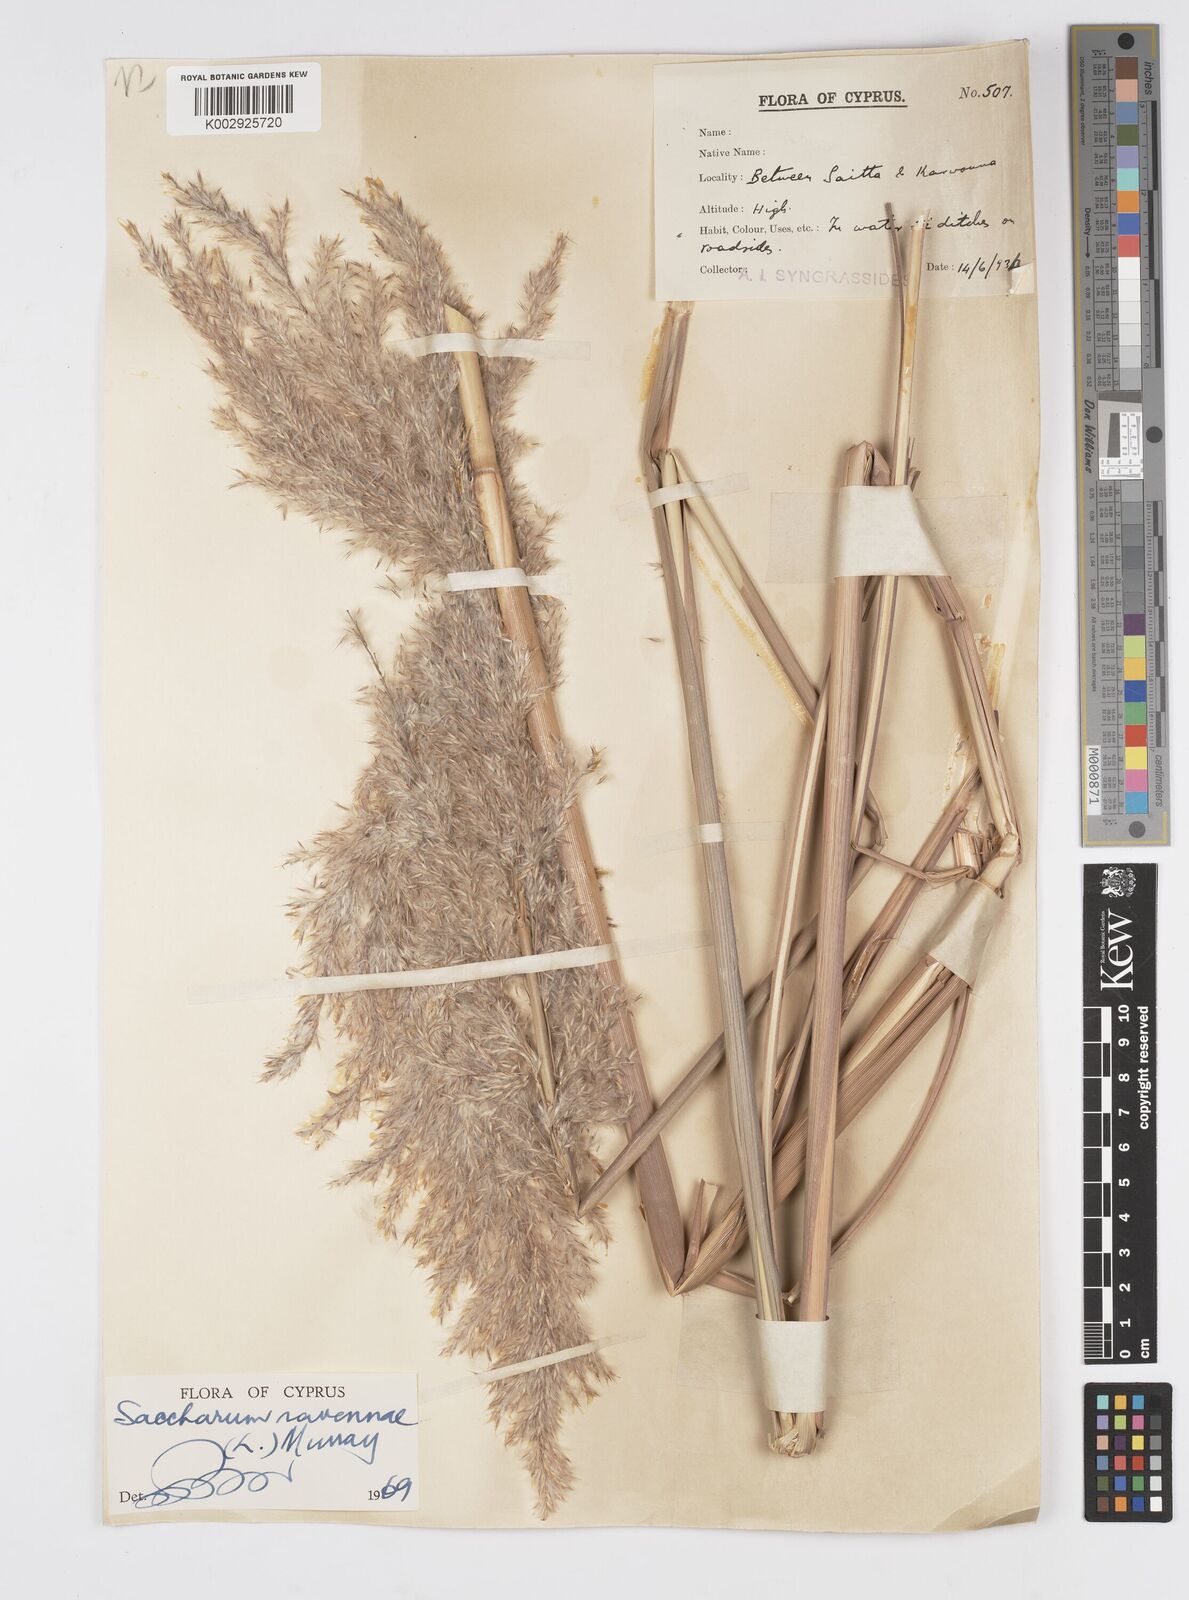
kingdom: Plantae
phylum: Tracheophyta
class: Liliopsida
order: Poales
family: Poaceae
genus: Tripidium
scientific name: Tripidium ravennae
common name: Ravenna grass
